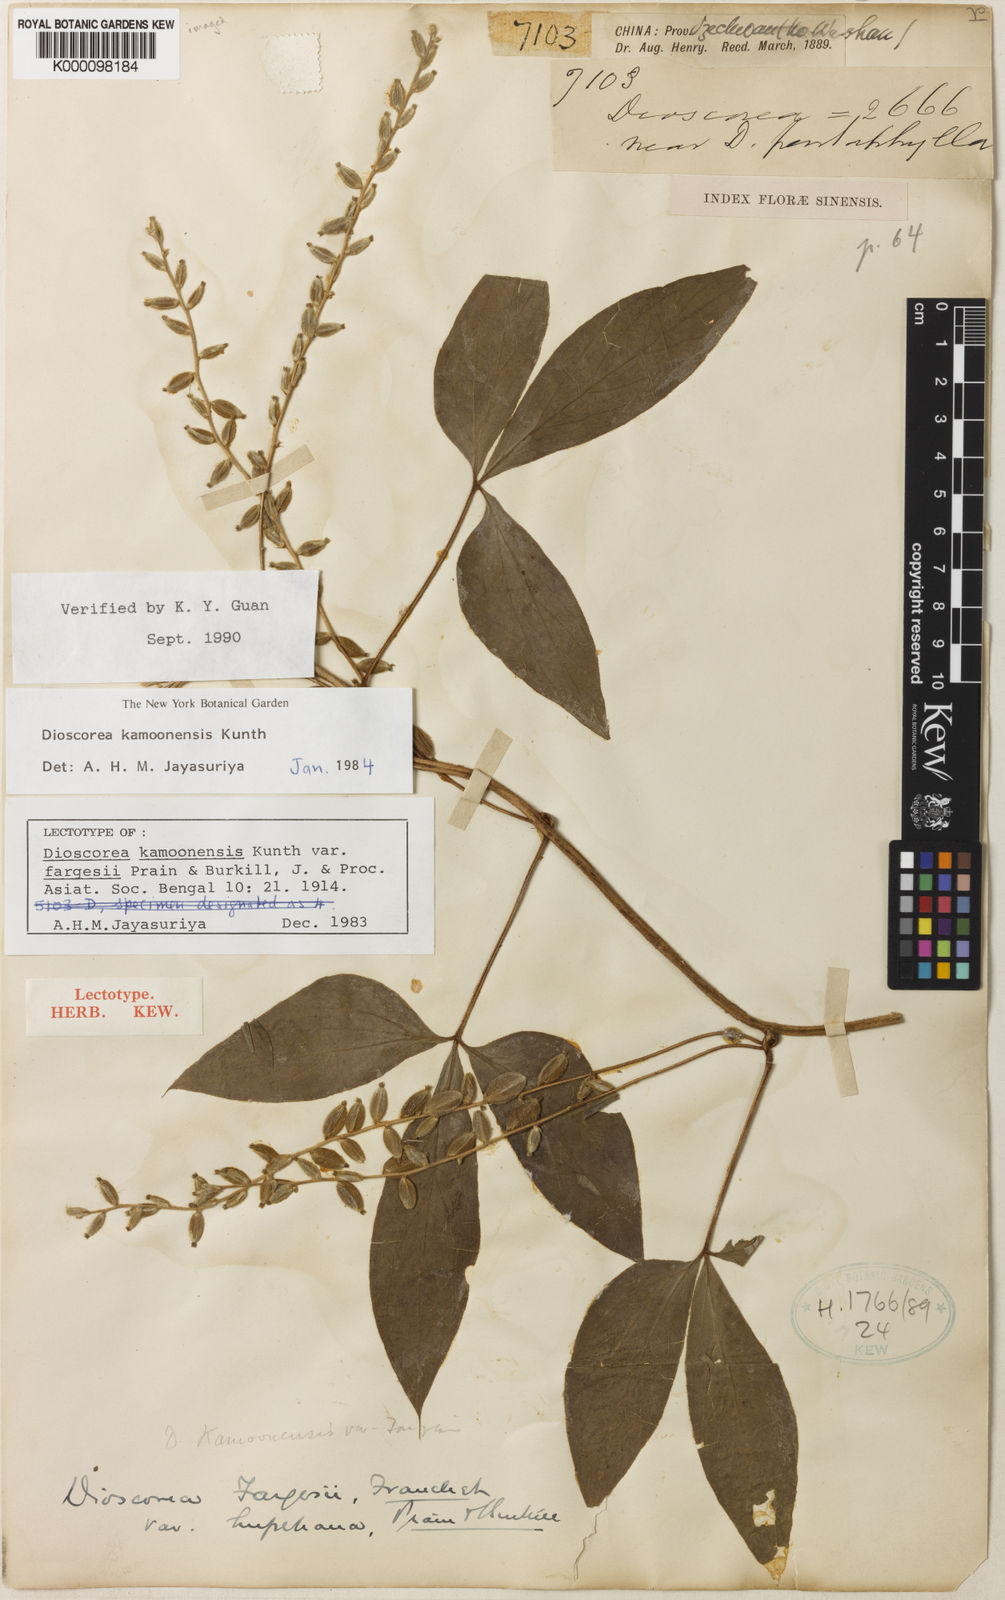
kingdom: Plantae
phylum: Tracheophyta
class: Liliopsida
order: Dioscoreales
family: Dioscoreaceae
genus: Dioscorea
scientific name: Dioscorea kamoonensis
